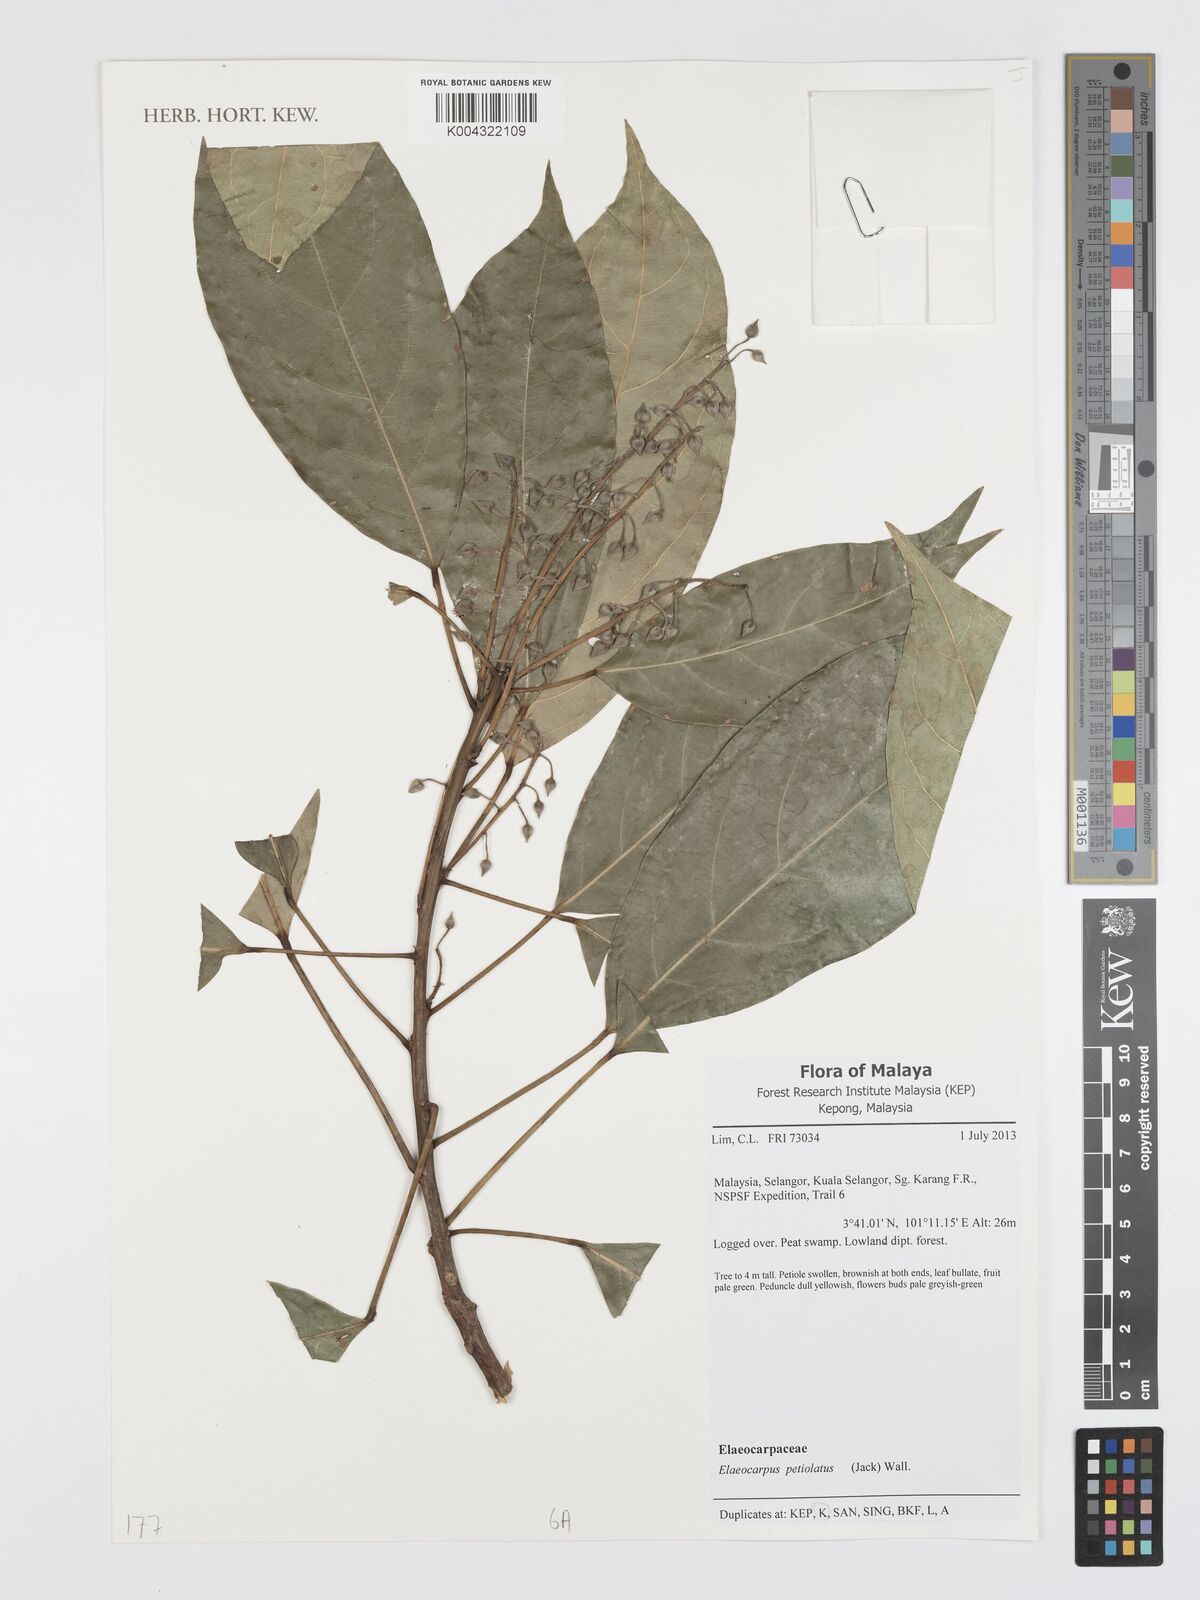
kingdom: Plantae
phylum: Tracheophyta
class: Magnoliopsida
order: Oxalidales
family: Elaeocarpaceae
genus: Elaeocarpus
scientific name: Elaeocarpus petiolatus
